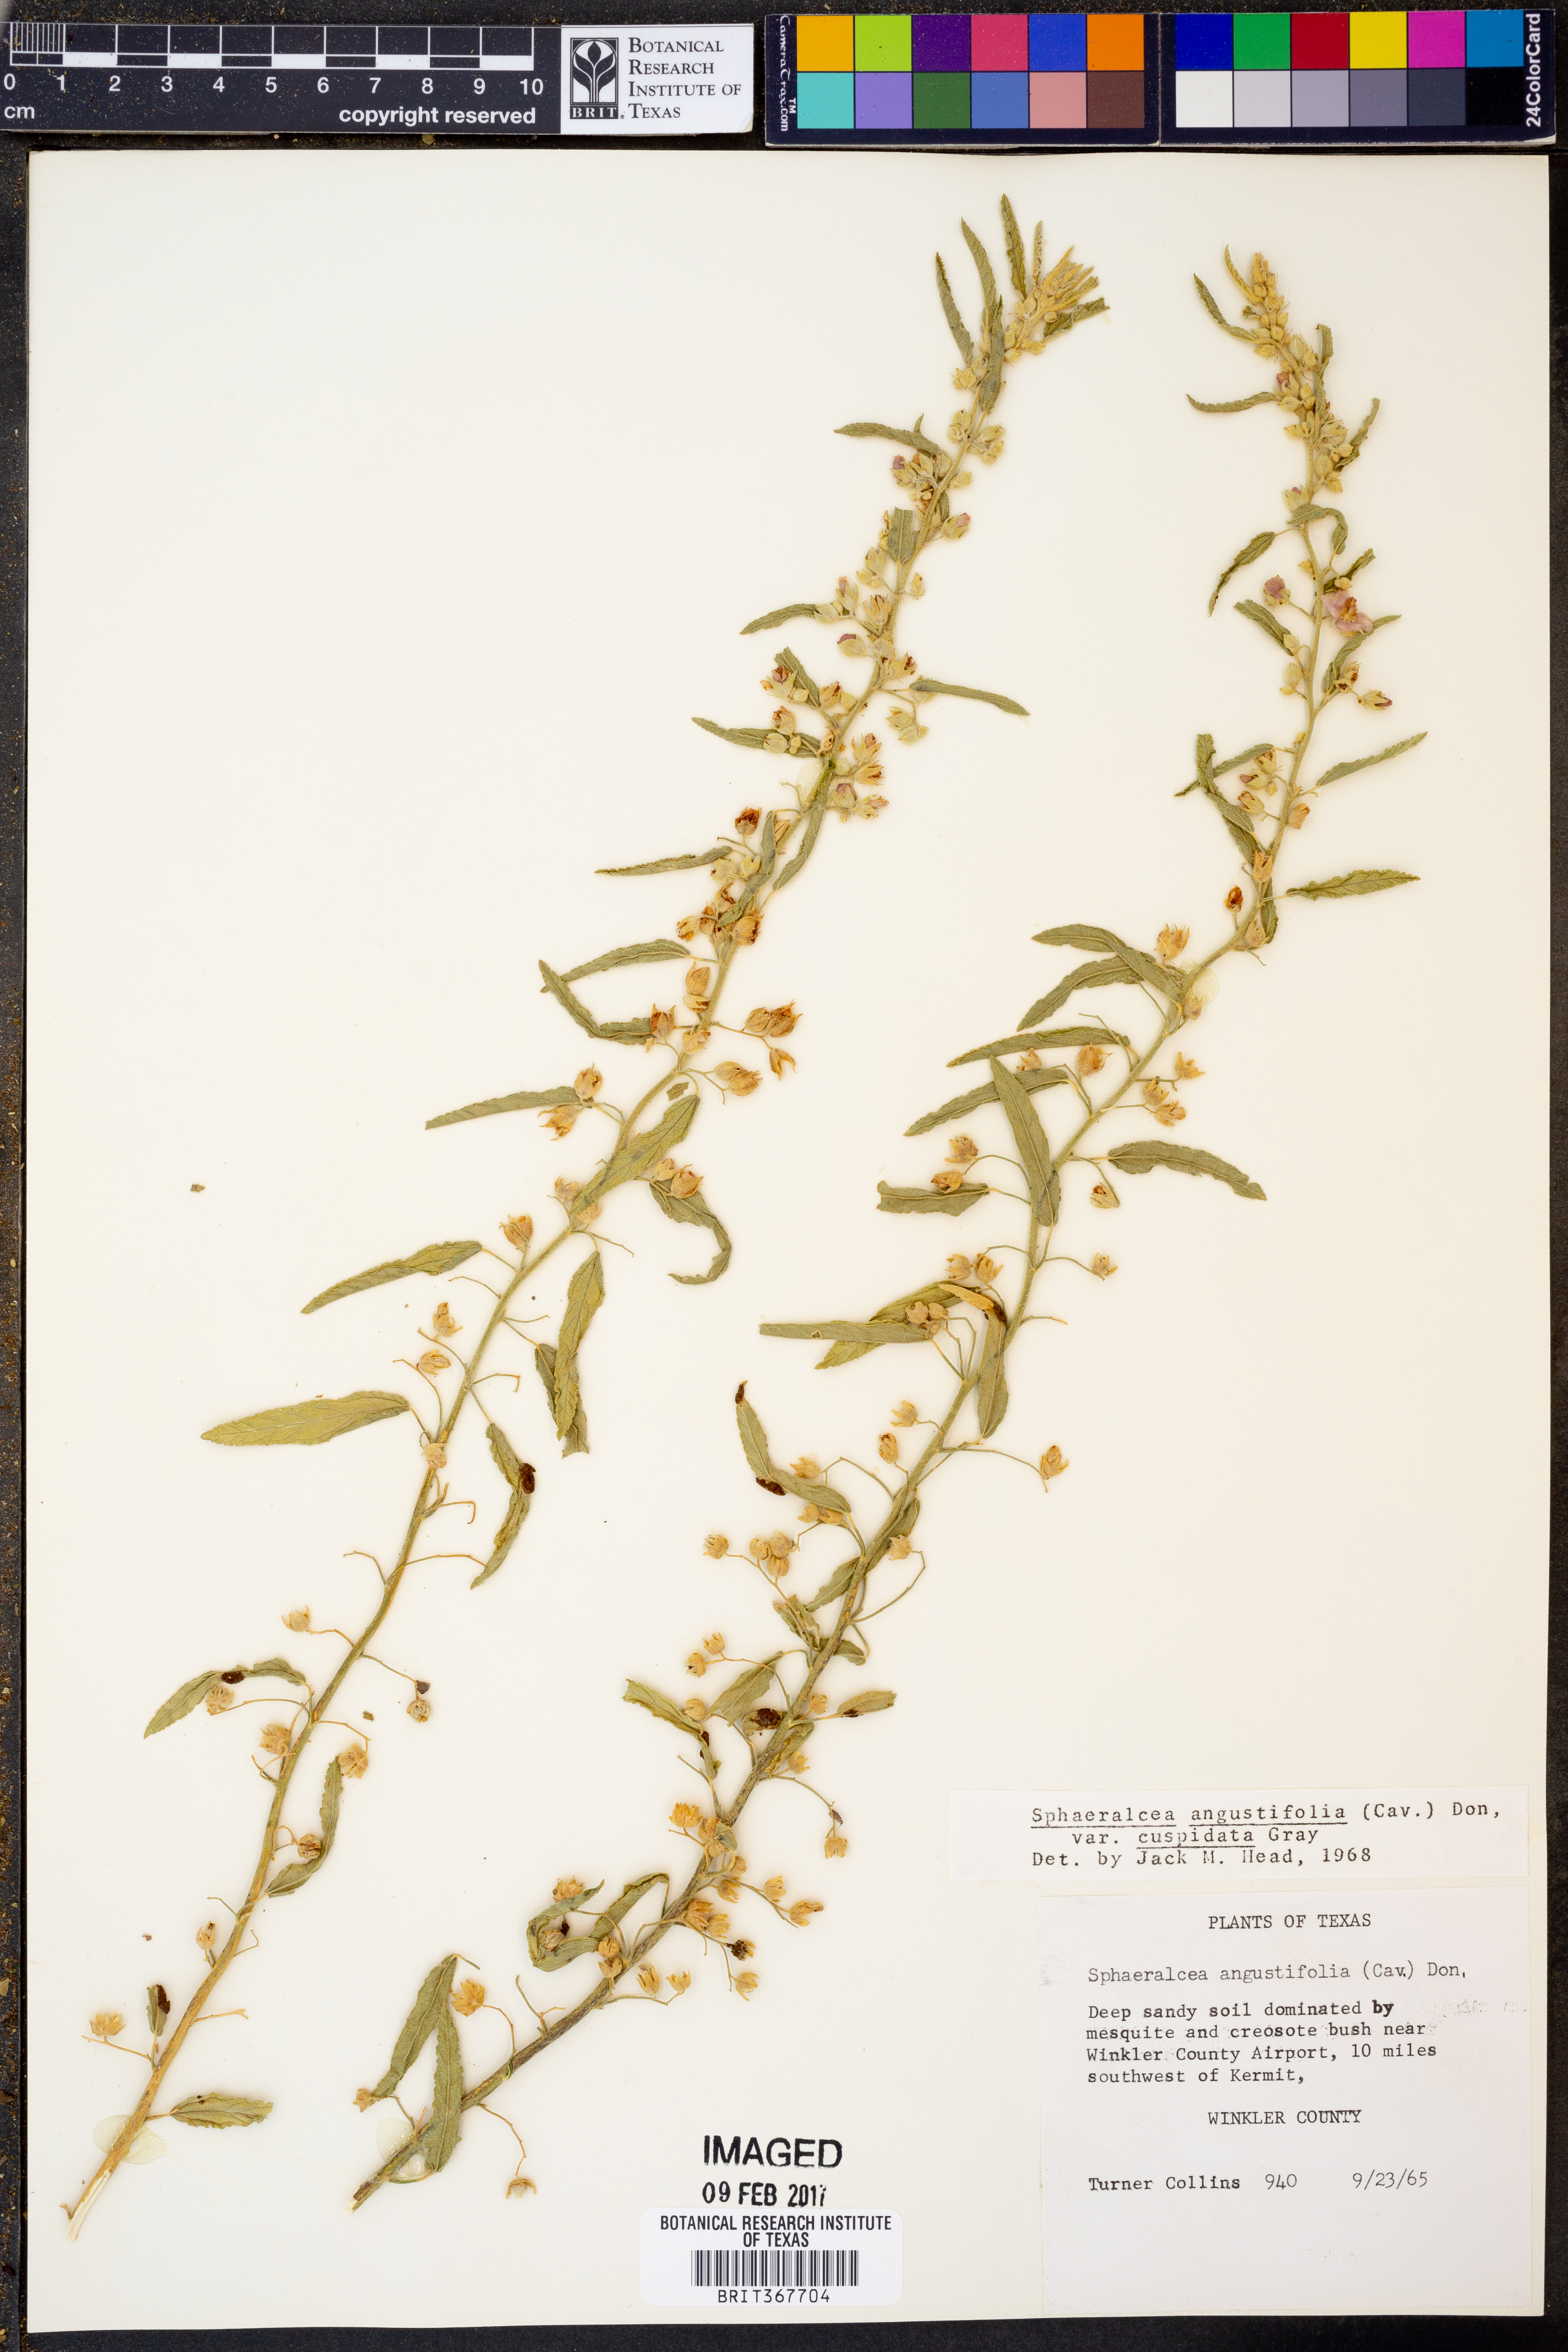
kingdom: Plantae
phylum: Tracheophyta
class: Magnoliopsida
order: Malvales
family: Malvaceae
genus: Sphaeralcea
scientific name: Sphaeralcea angustifolia
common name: Copper globe-mallow
